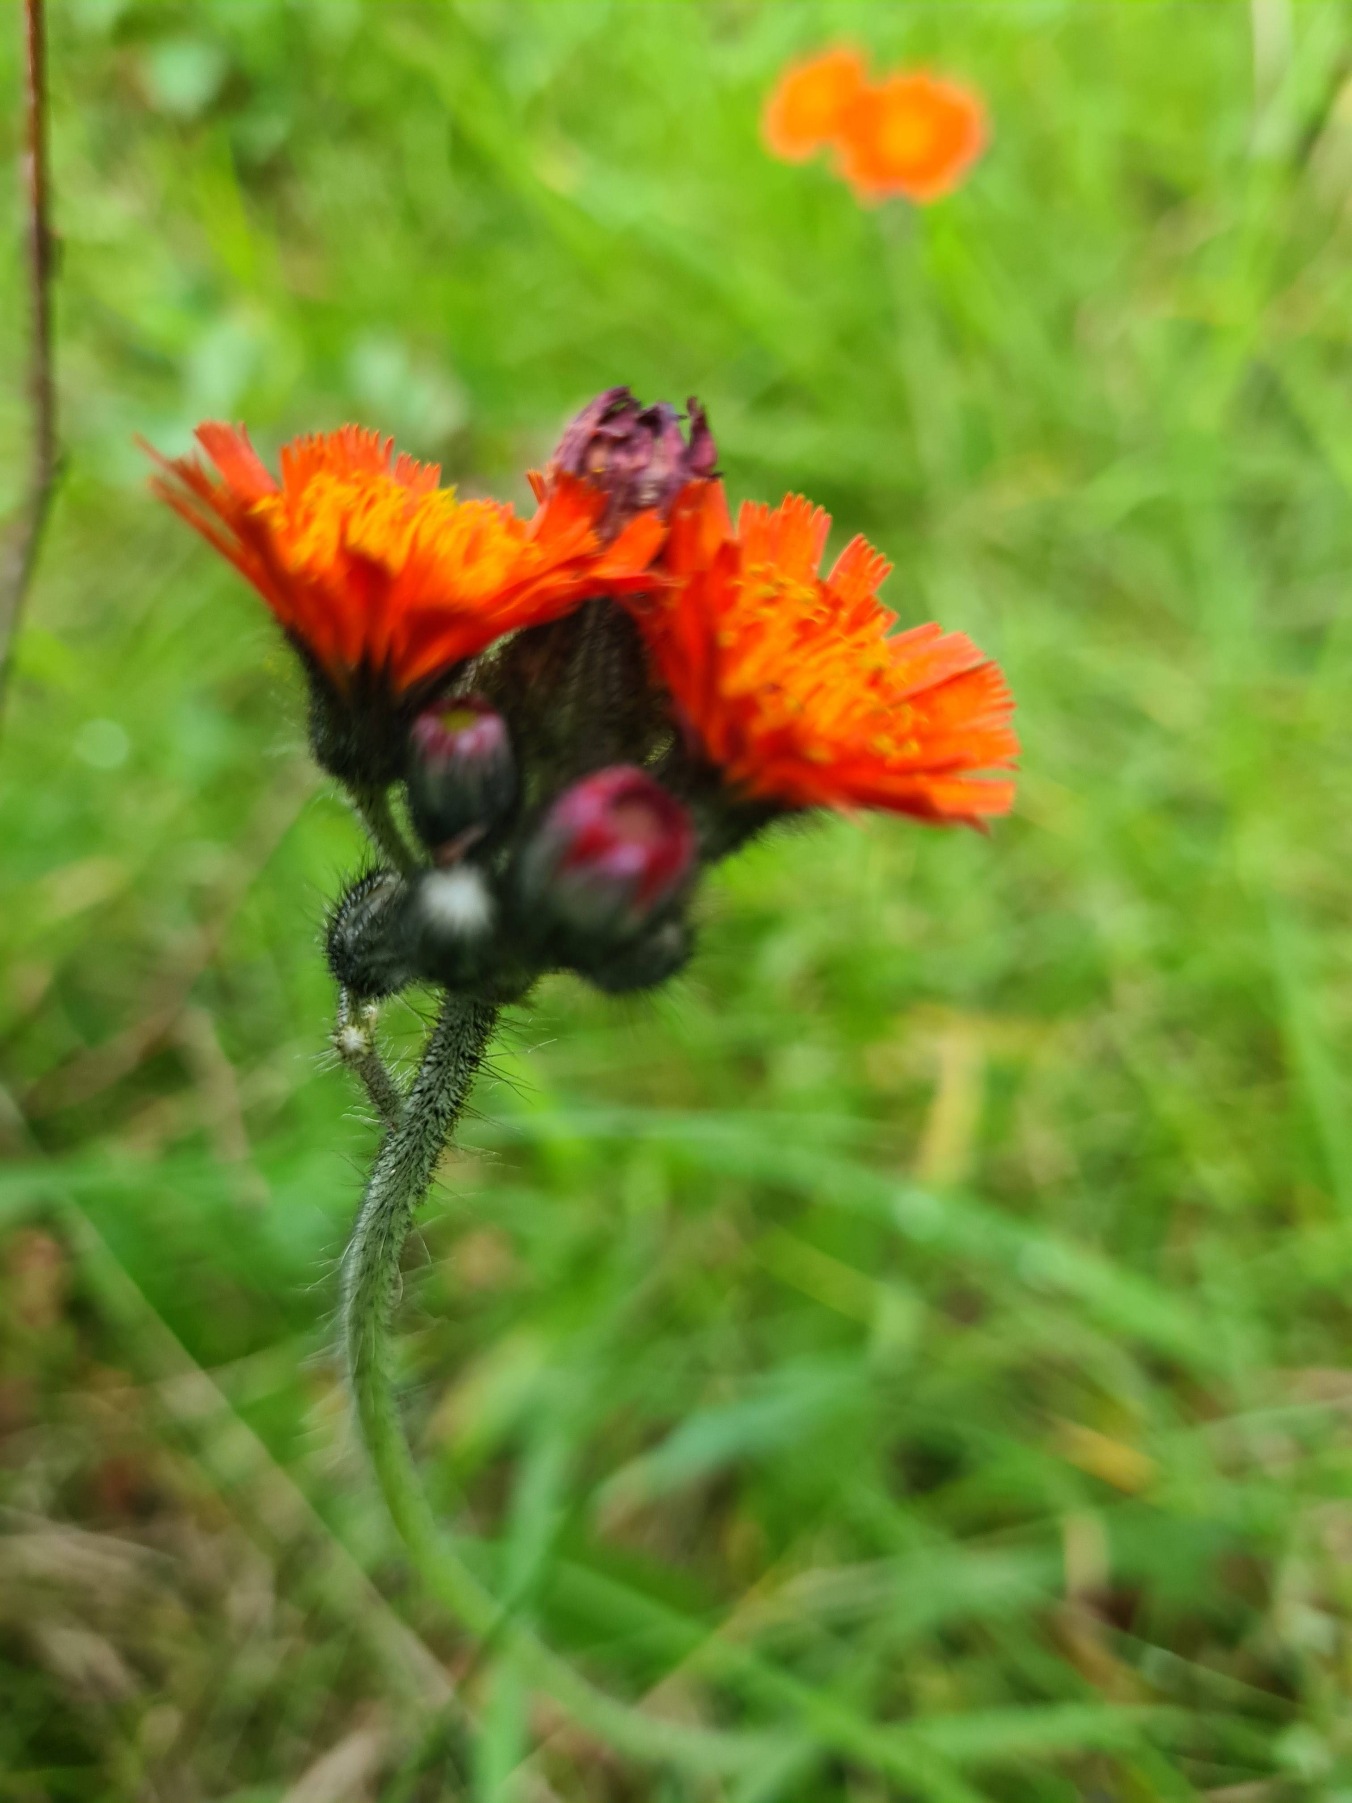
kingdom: Plantae
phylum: Tracheophyta
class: Magnoliopsida
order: Asterales
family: Asteraceae
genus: Pilosella
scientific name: Pilosella aurantiaca
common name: Pomerans-høgeurt
